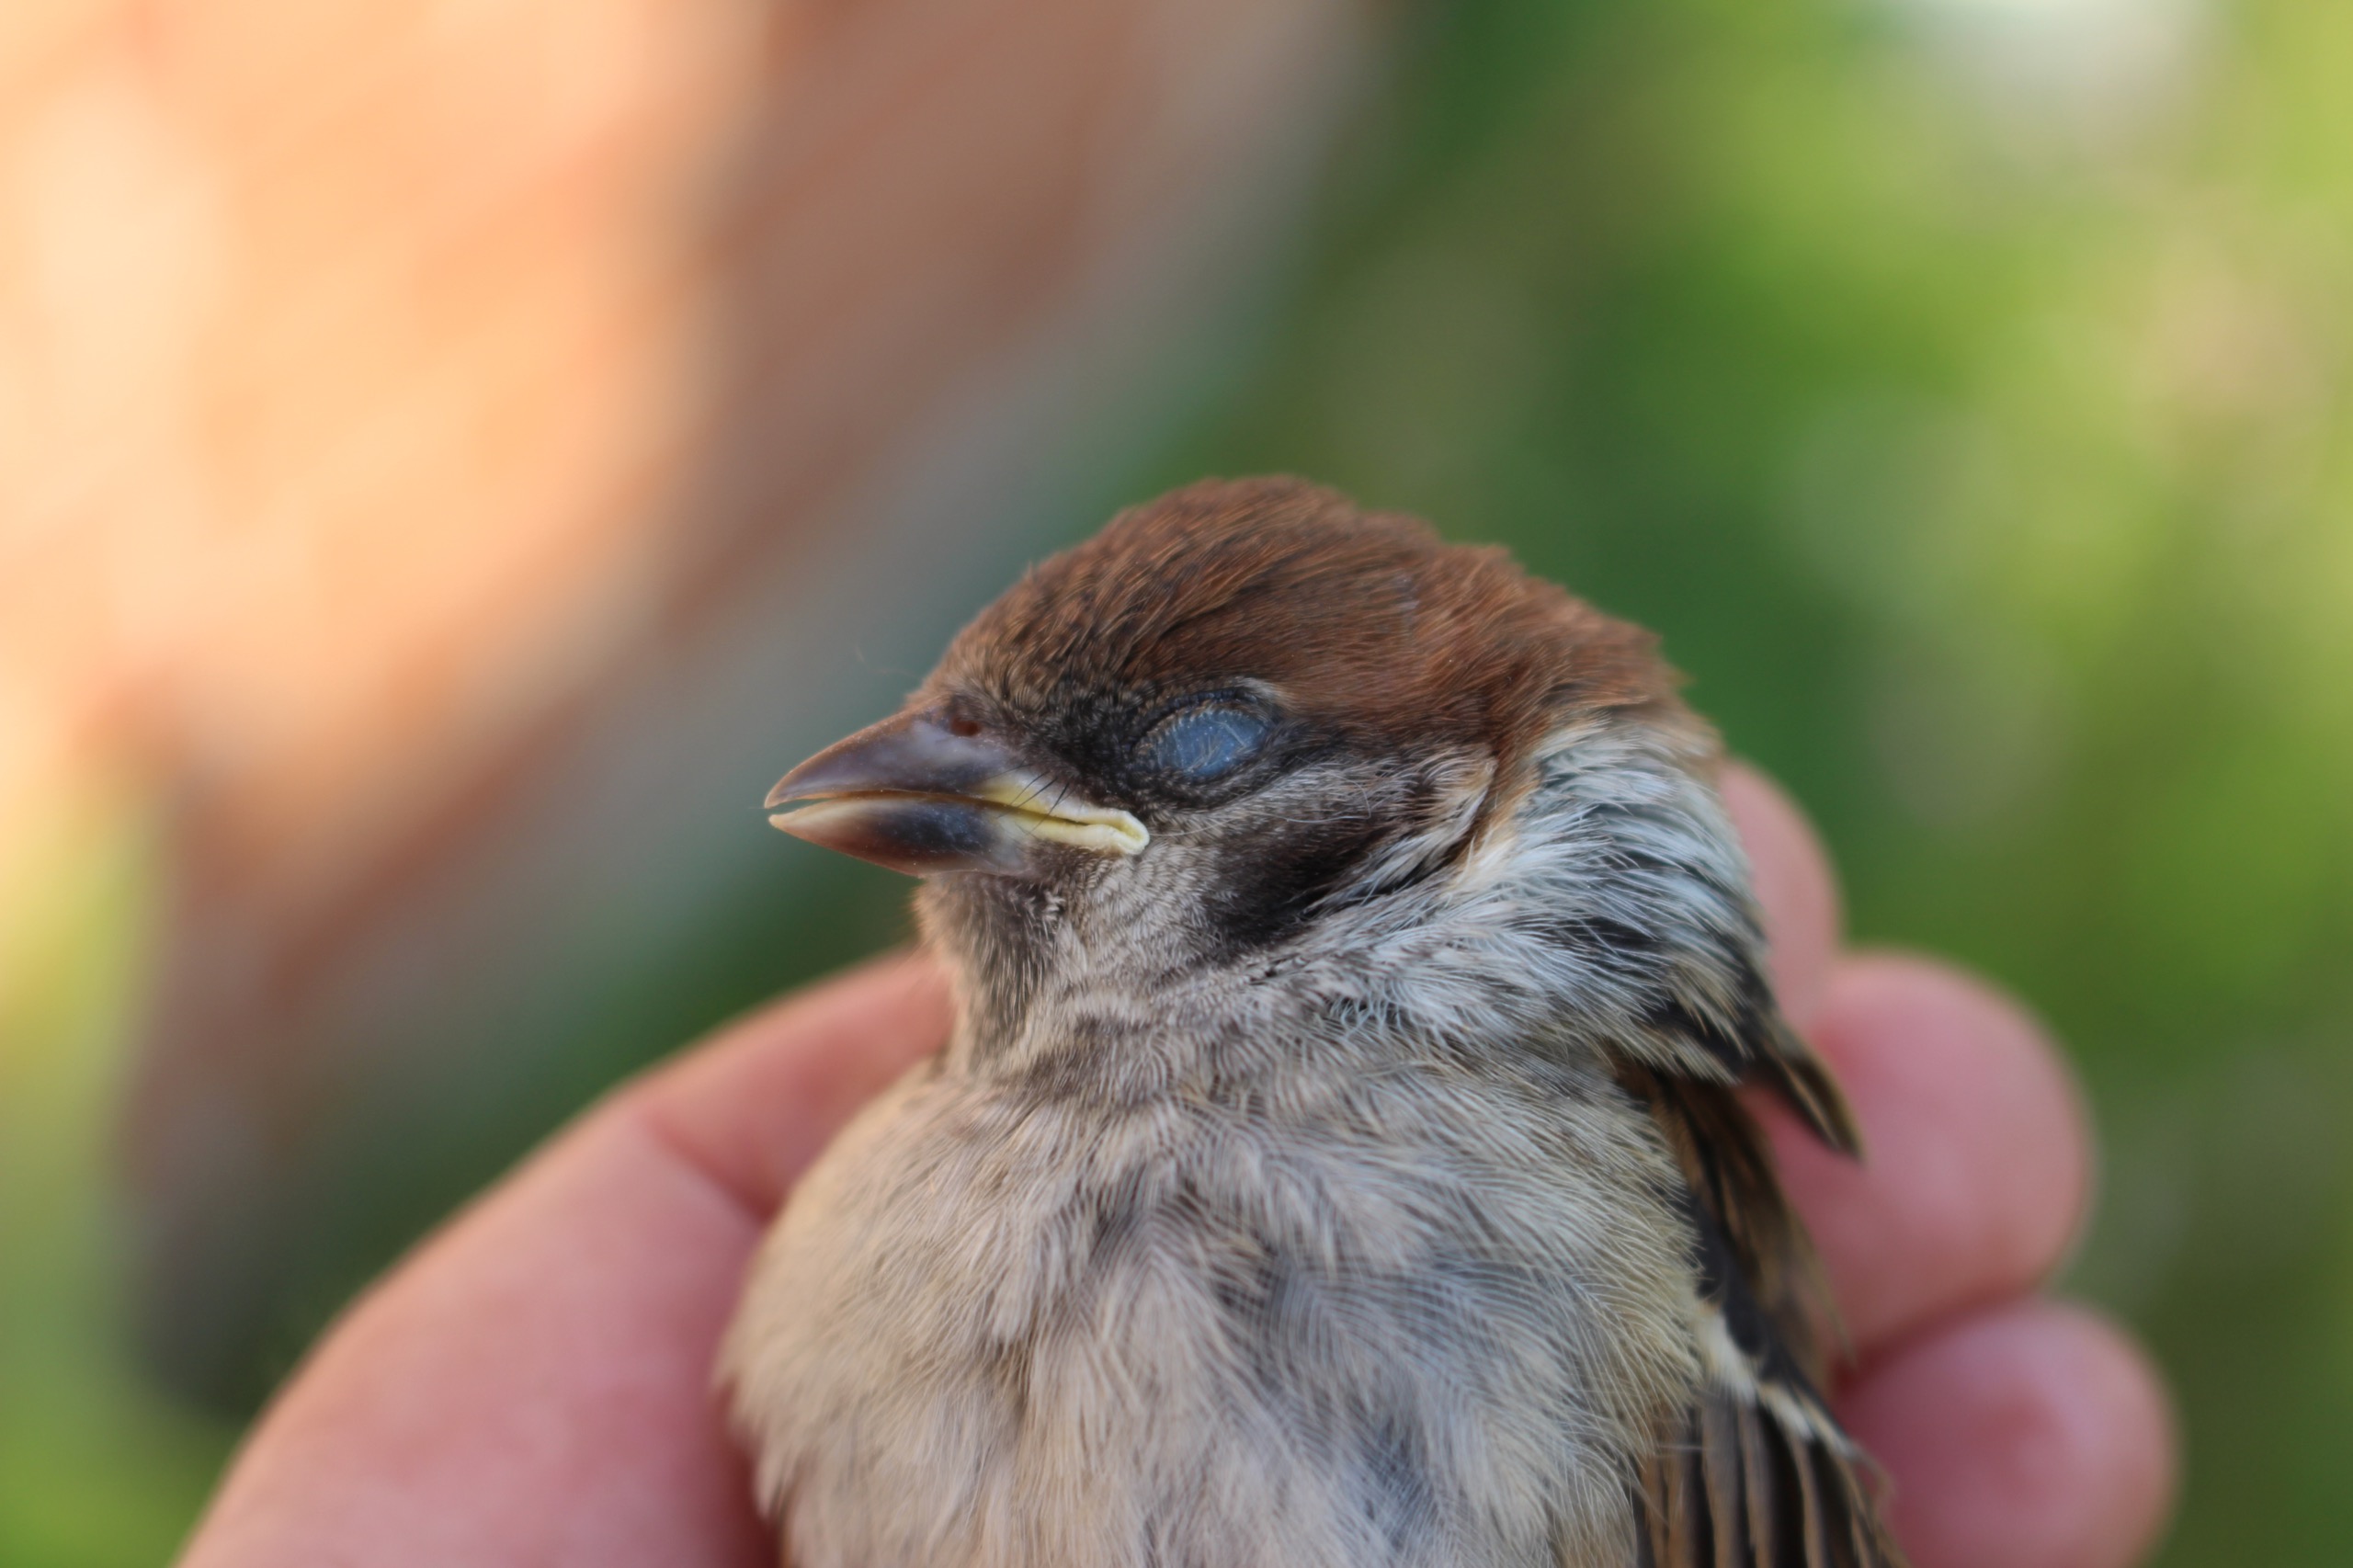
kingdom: Animalia
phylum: Chordata
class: Aves
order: Passeriformes
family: Passeridae
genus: Passer
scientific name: Passer montanus
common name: Skovspurv
